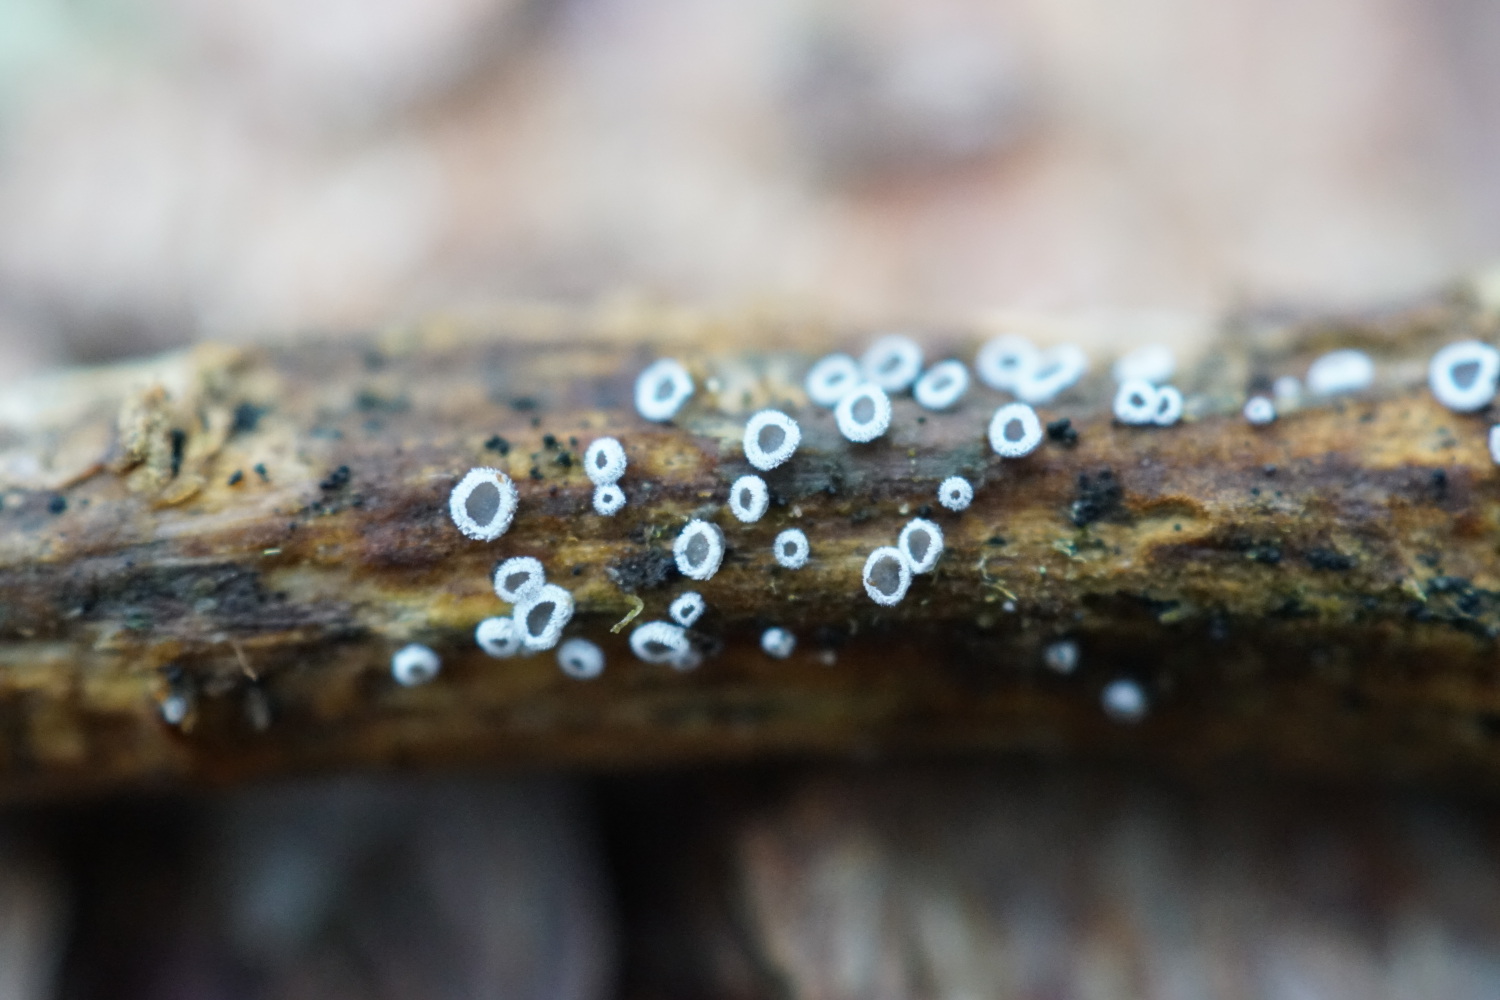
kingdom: Fungi
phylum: Basidiomycota
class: Agaricomycetes
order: Agaricales
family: Niaceae
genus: Lachnella
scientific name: Lachnella alboviolascens
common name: grå frynserede
